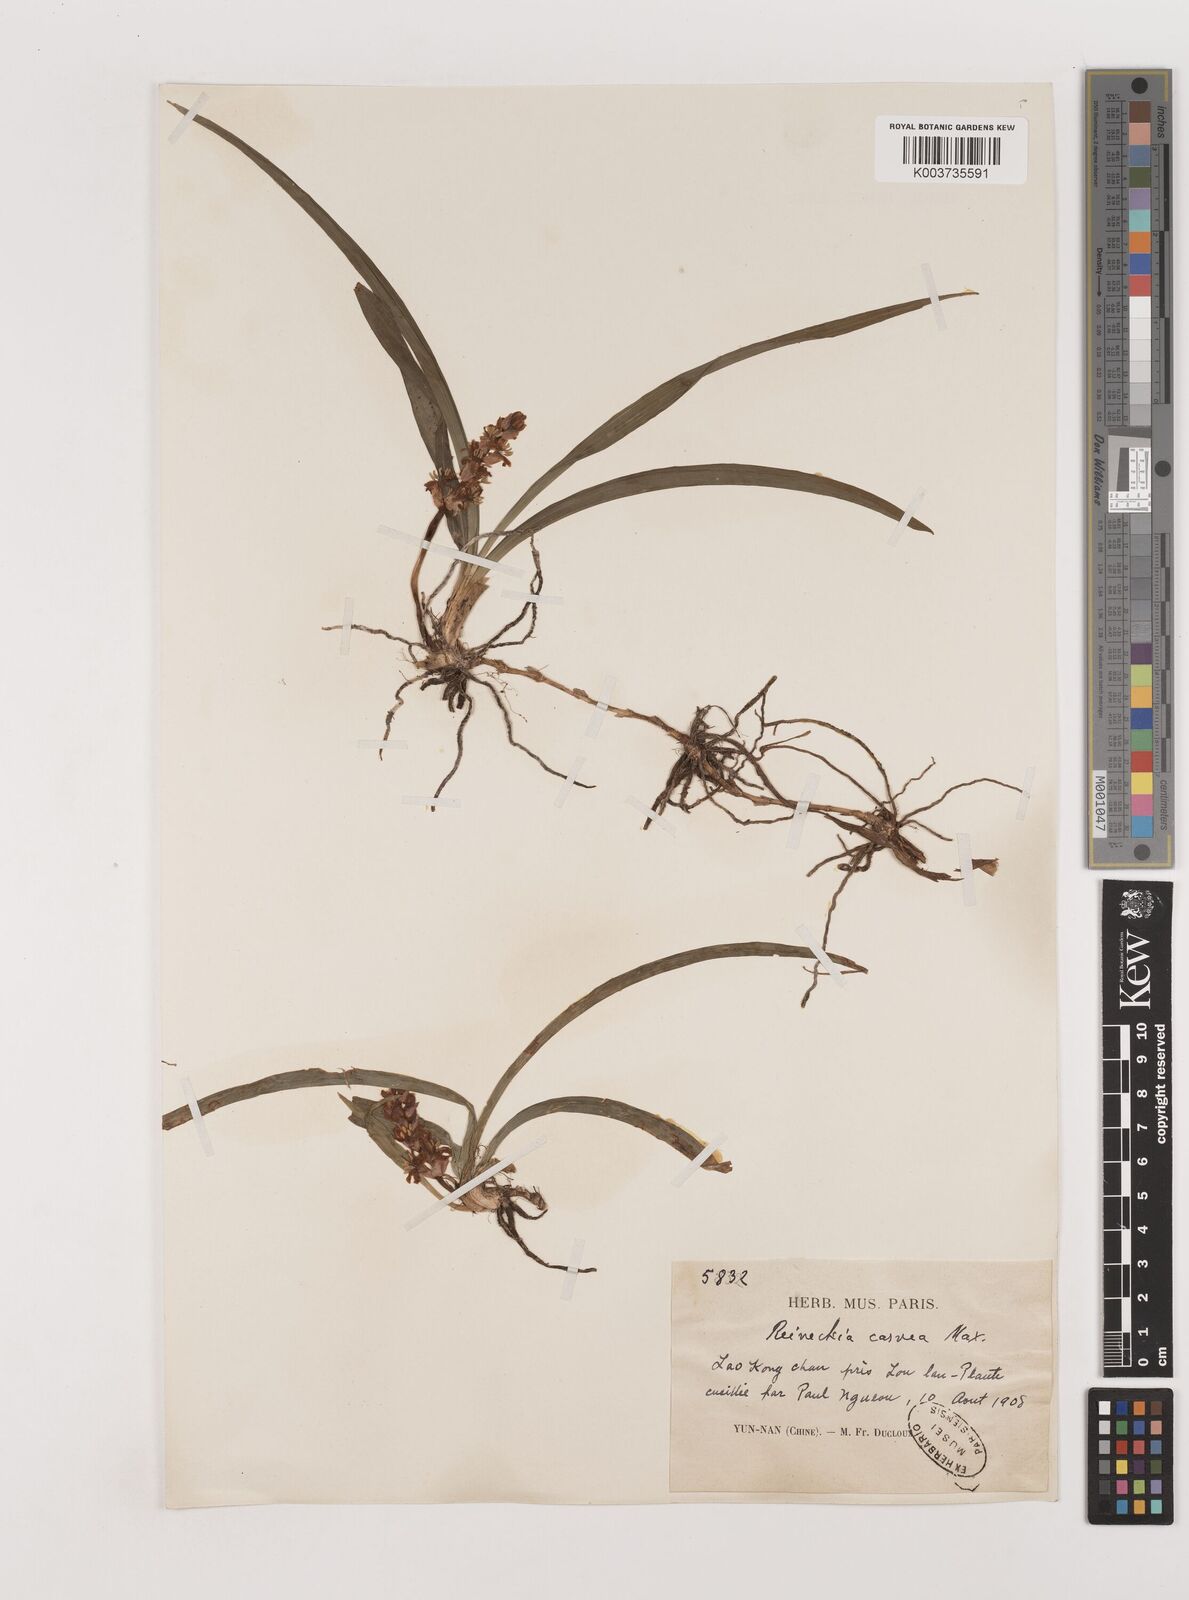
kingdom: Plantae
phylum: Tracheophyta
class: Liliopsida
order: Asparagales
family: Asparagaceae
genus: Reineckea
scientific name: Reineckea carnea
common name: Reineckea
